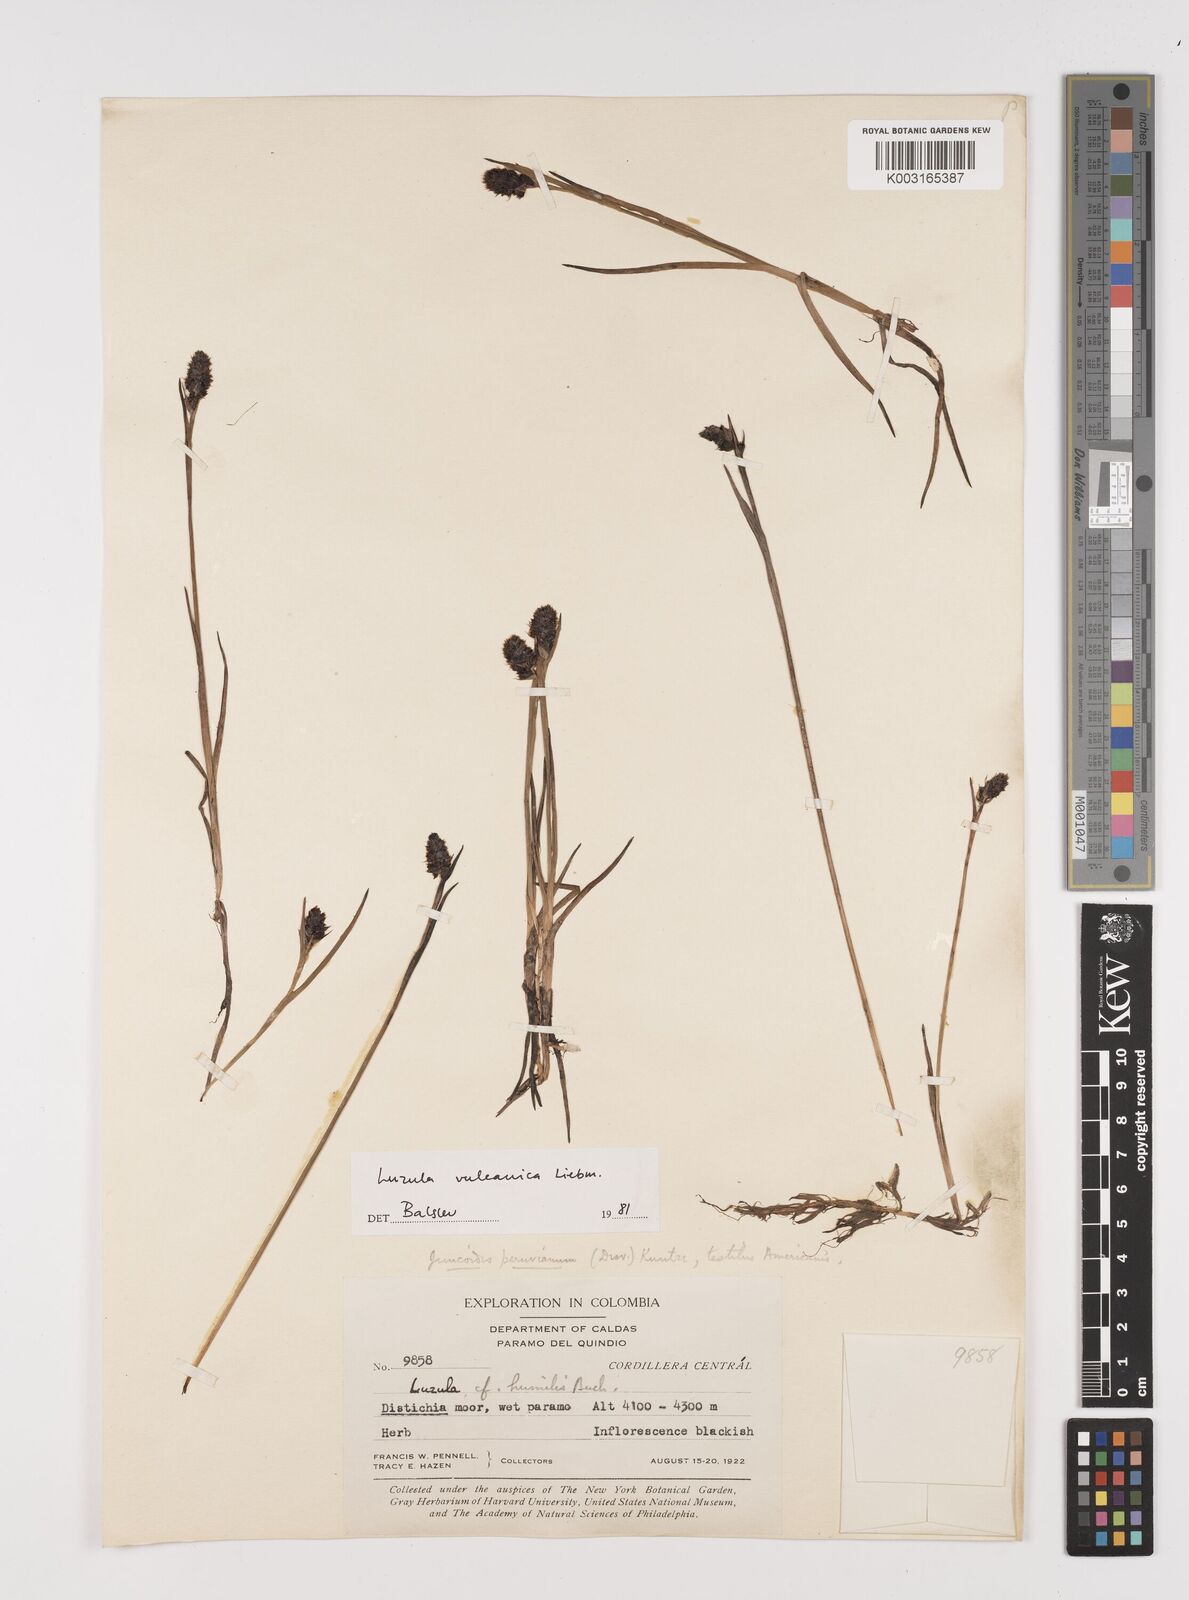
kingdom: Plantae
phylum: Tracheophyta
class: Liliopsida
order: Poales
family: Juncaceae
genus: Luzula
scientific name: Luzula vulcanica
